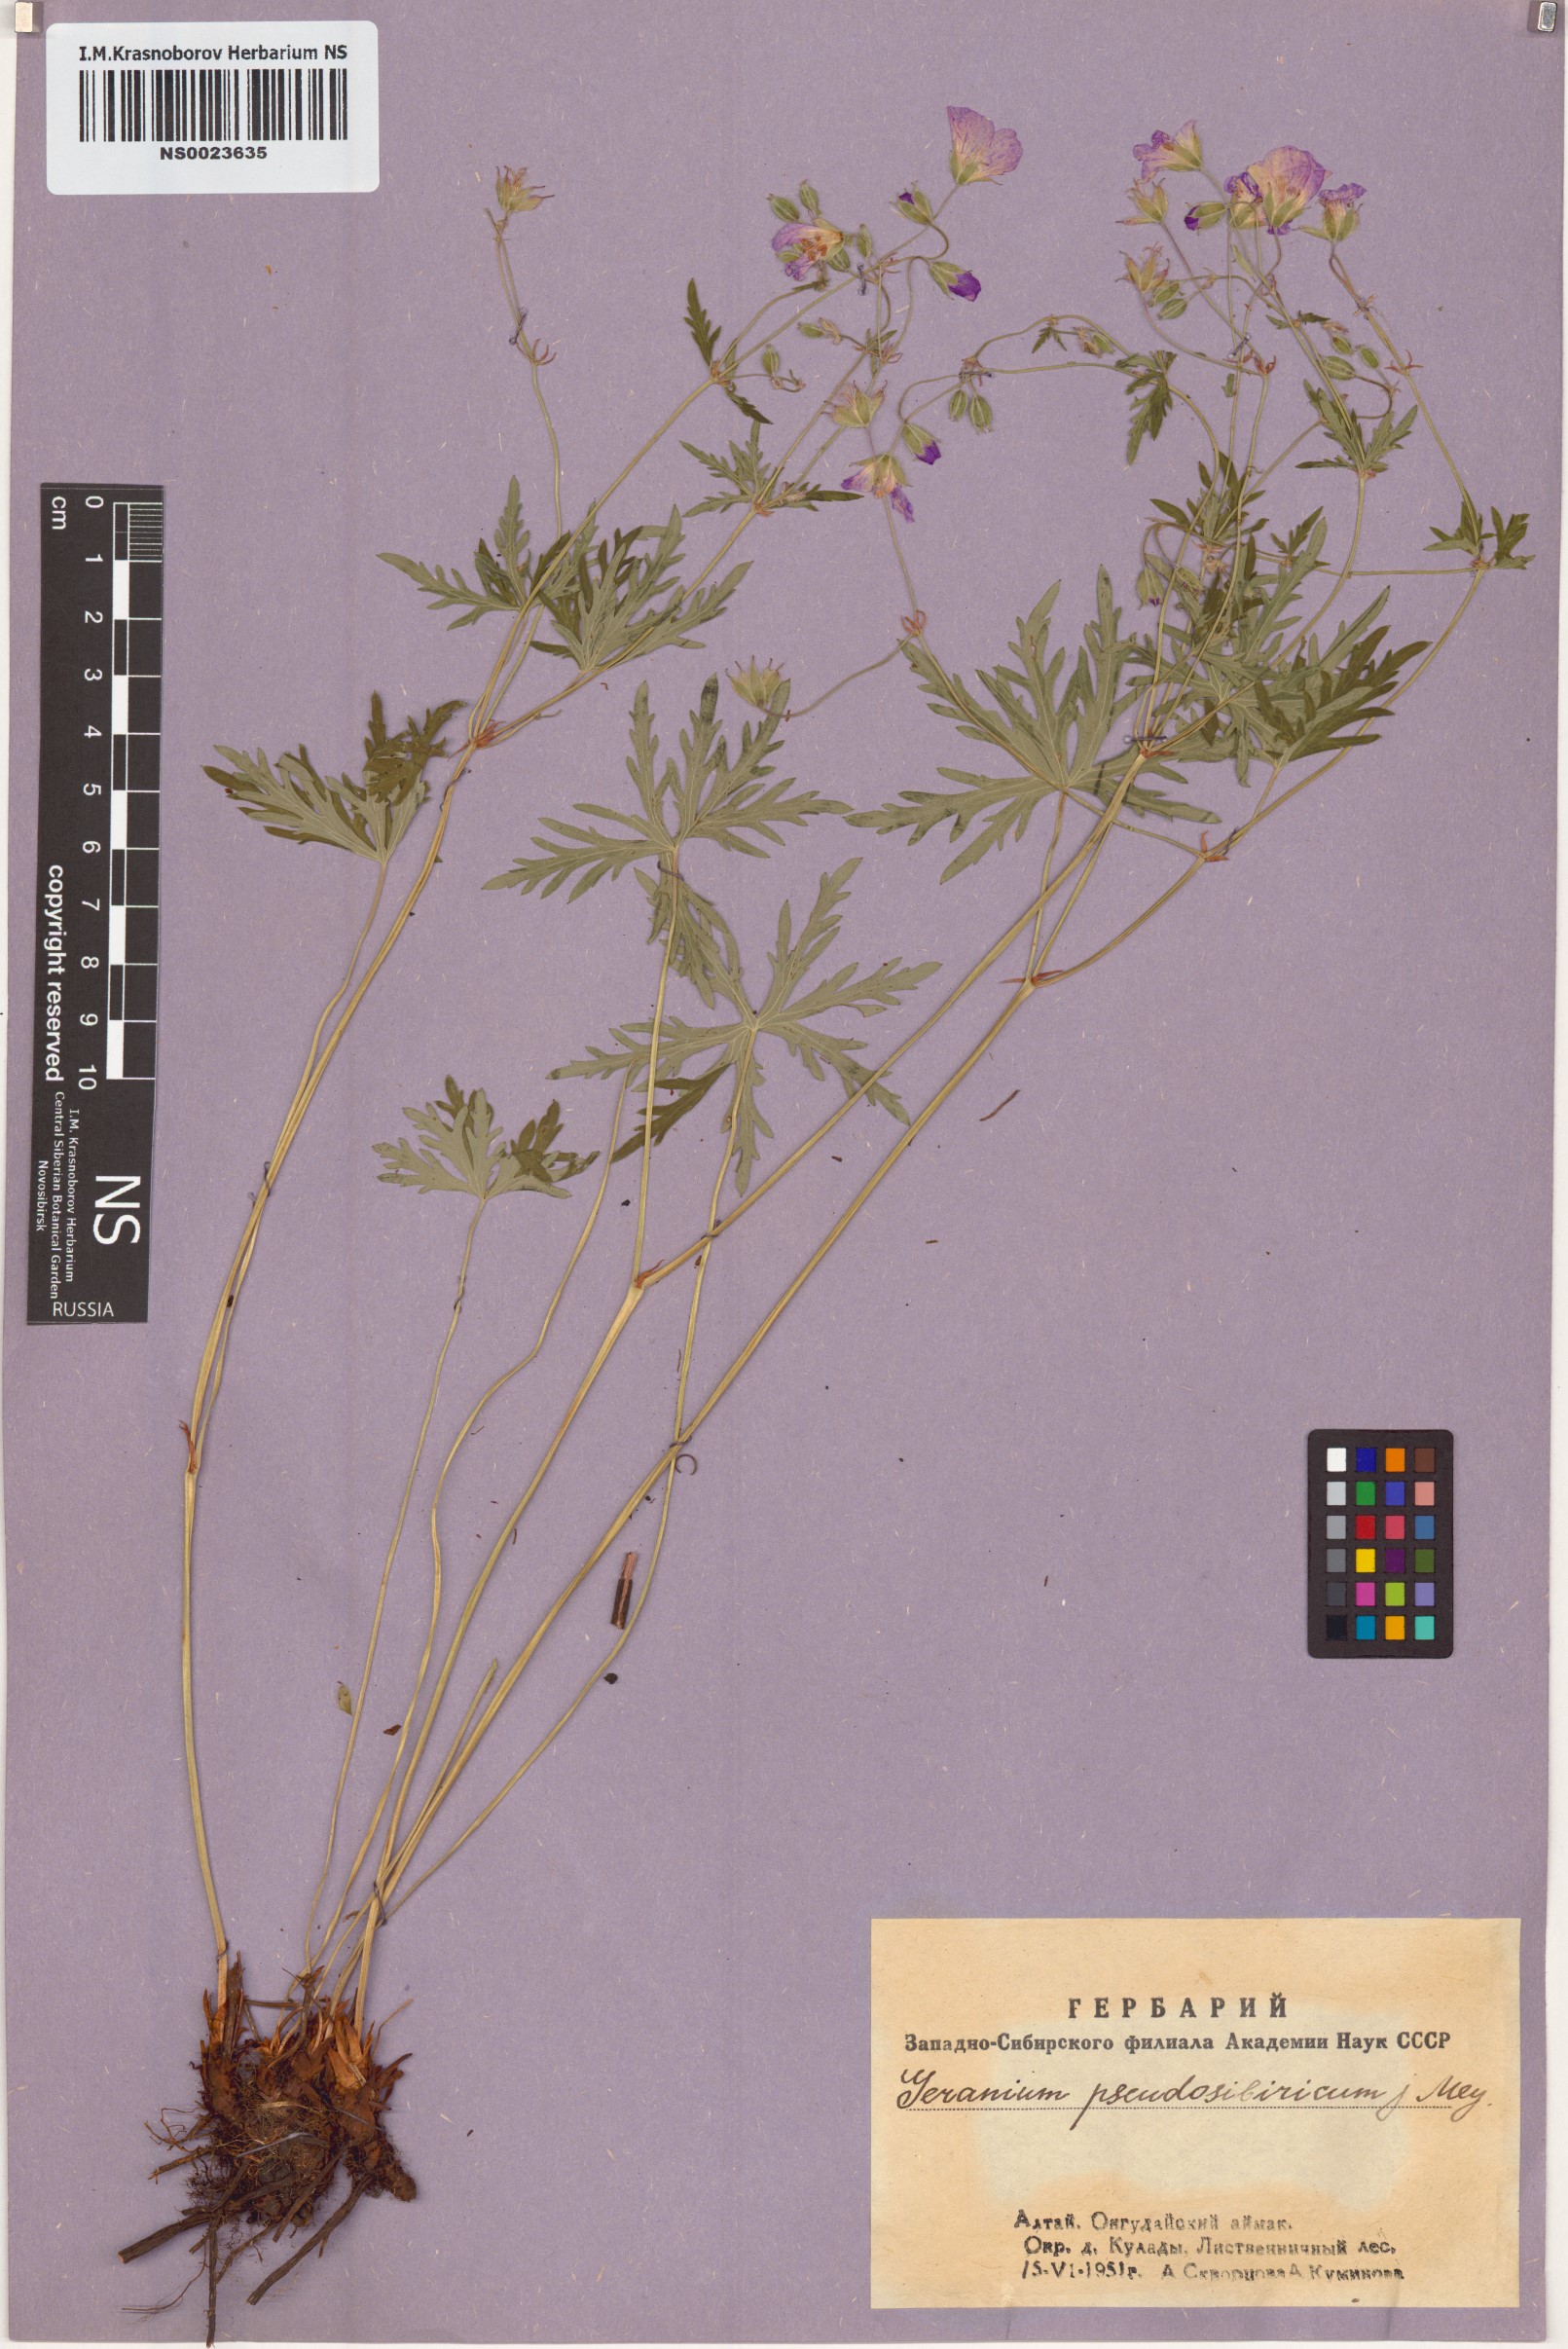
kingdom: Plantae
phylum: Tracheophyta
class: Magnoliopsida
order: Geraniales
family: Geraniaceae
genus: Geranium
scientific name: Geranium pseudosibiricum
